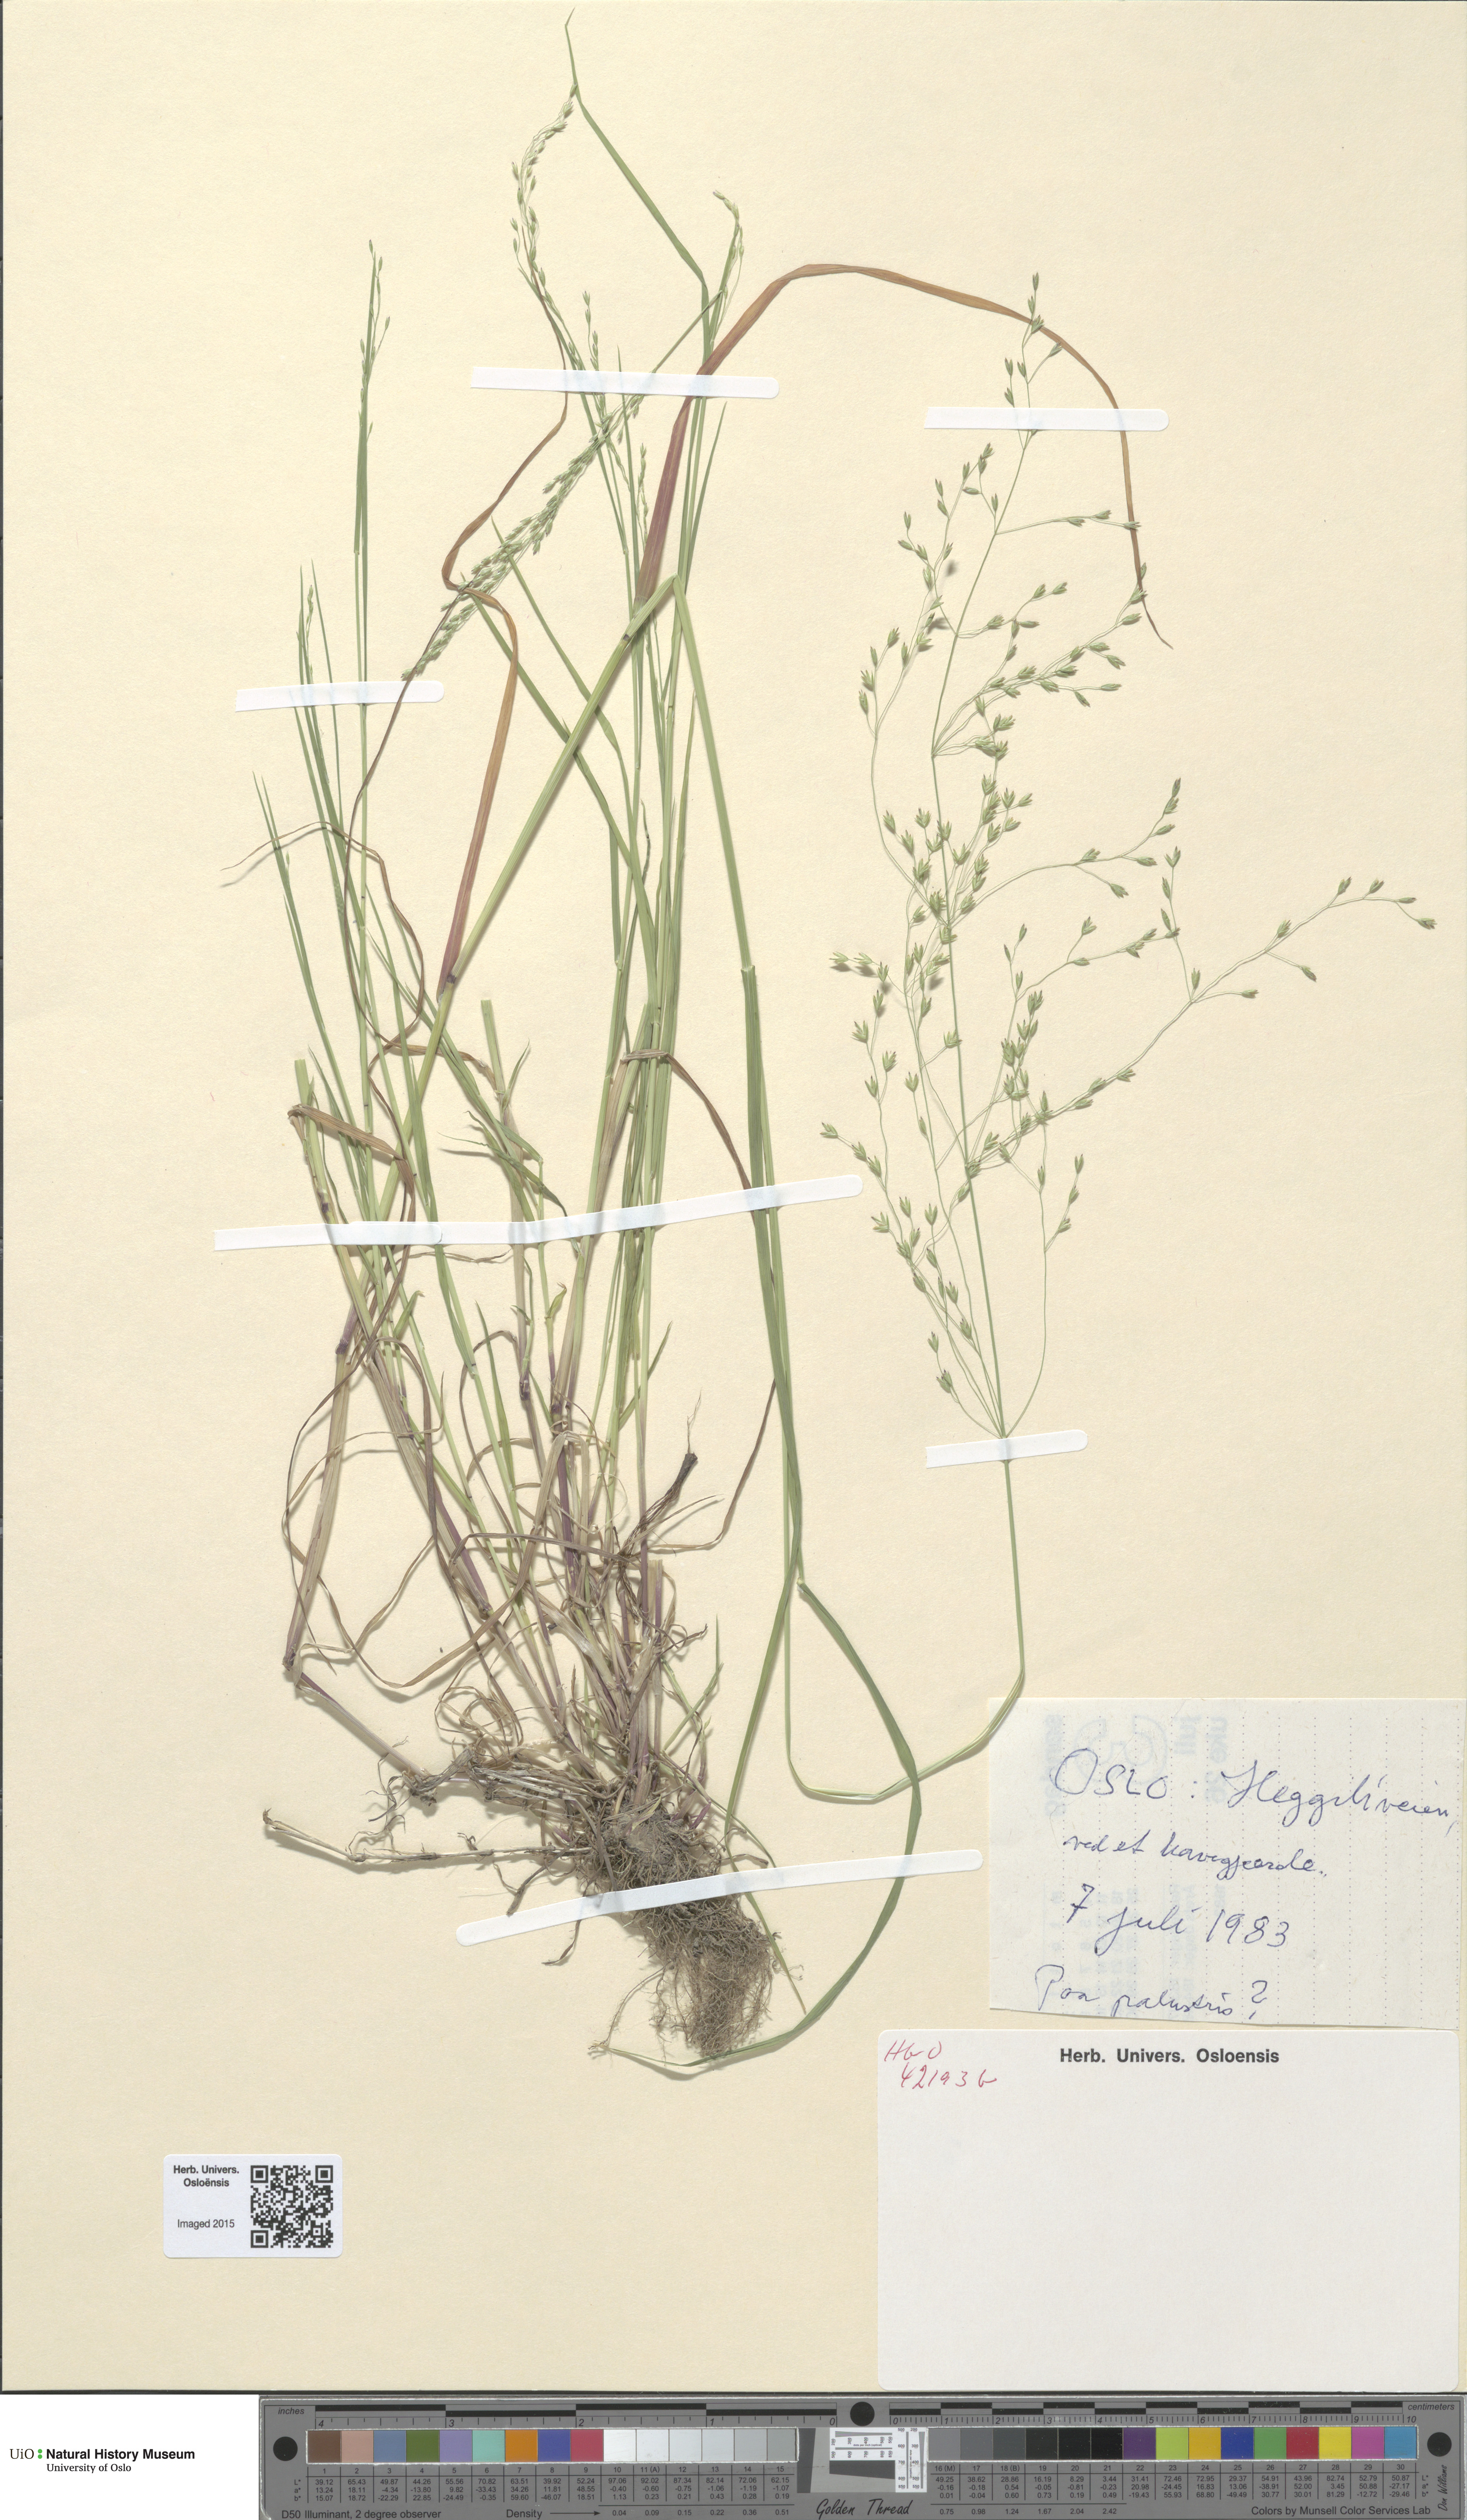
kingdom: Plantae
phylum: Tracheophyta
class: Liliopsida
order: Poales
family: Poaceae
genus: Poa
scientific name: Poa palustris
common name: Swamp meadow-grass
